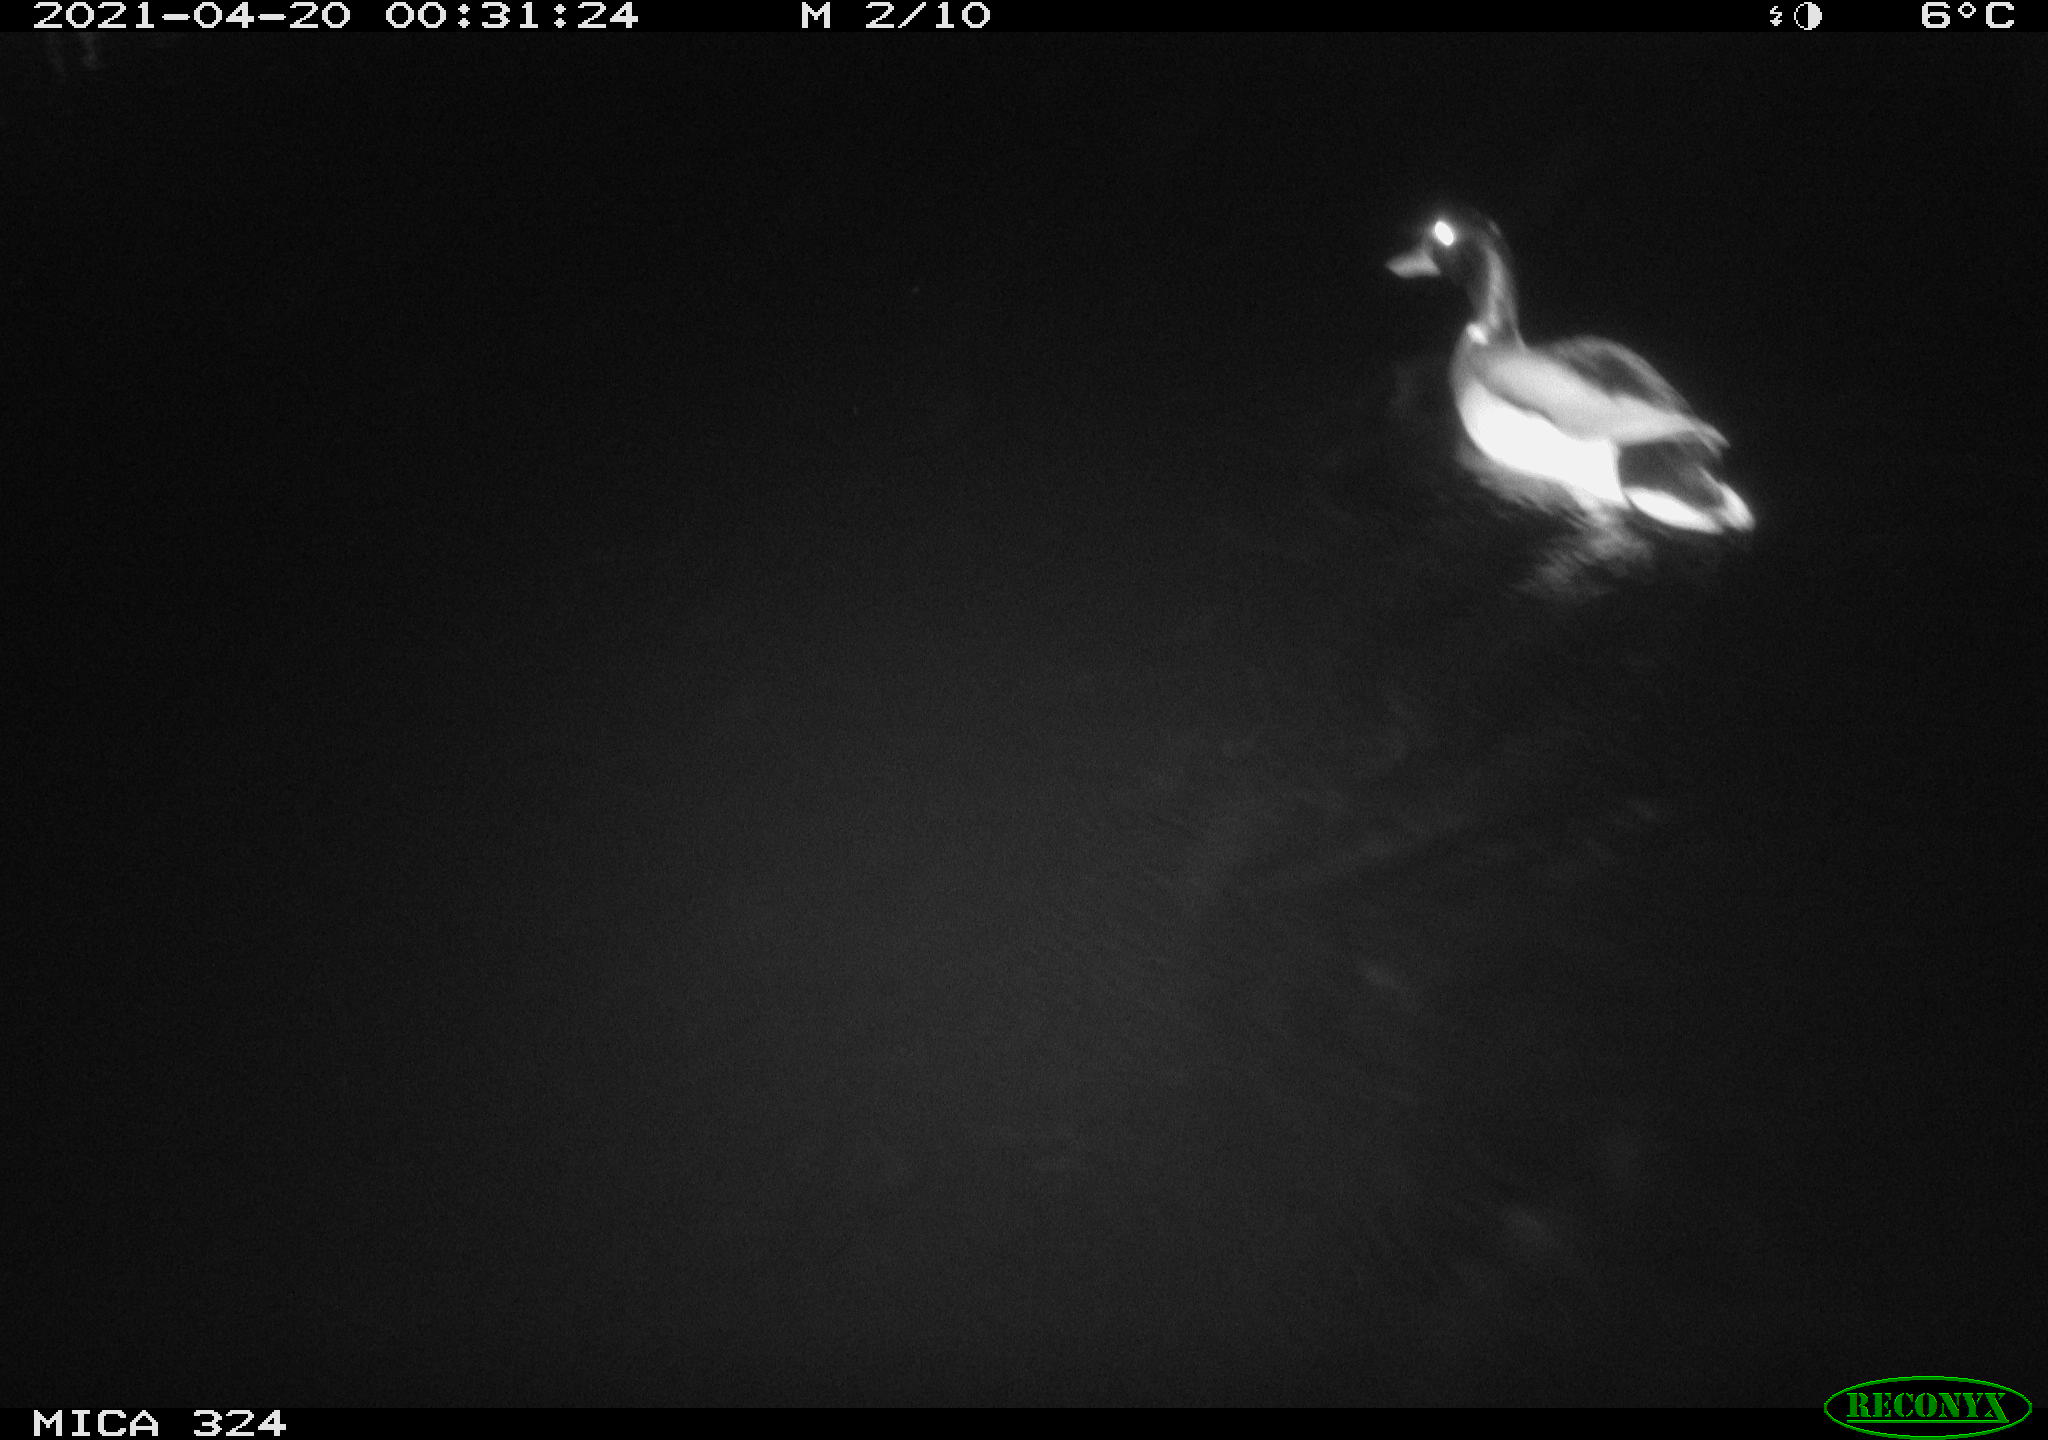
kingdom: Animalia
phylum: Chordata
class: Aves
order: Anseriformes
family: Anatidae
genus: Anas
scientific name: Anas platyrhynchos
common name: Mallard
